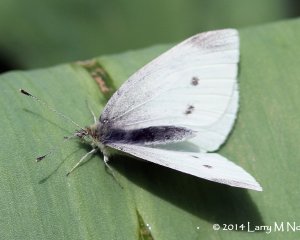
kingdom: Animalia
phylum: Arthropoda
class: Insecta
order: Lepidoptera
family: Pieridae
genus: Pieris
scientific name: Pieris rapae
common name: Cabbage White
